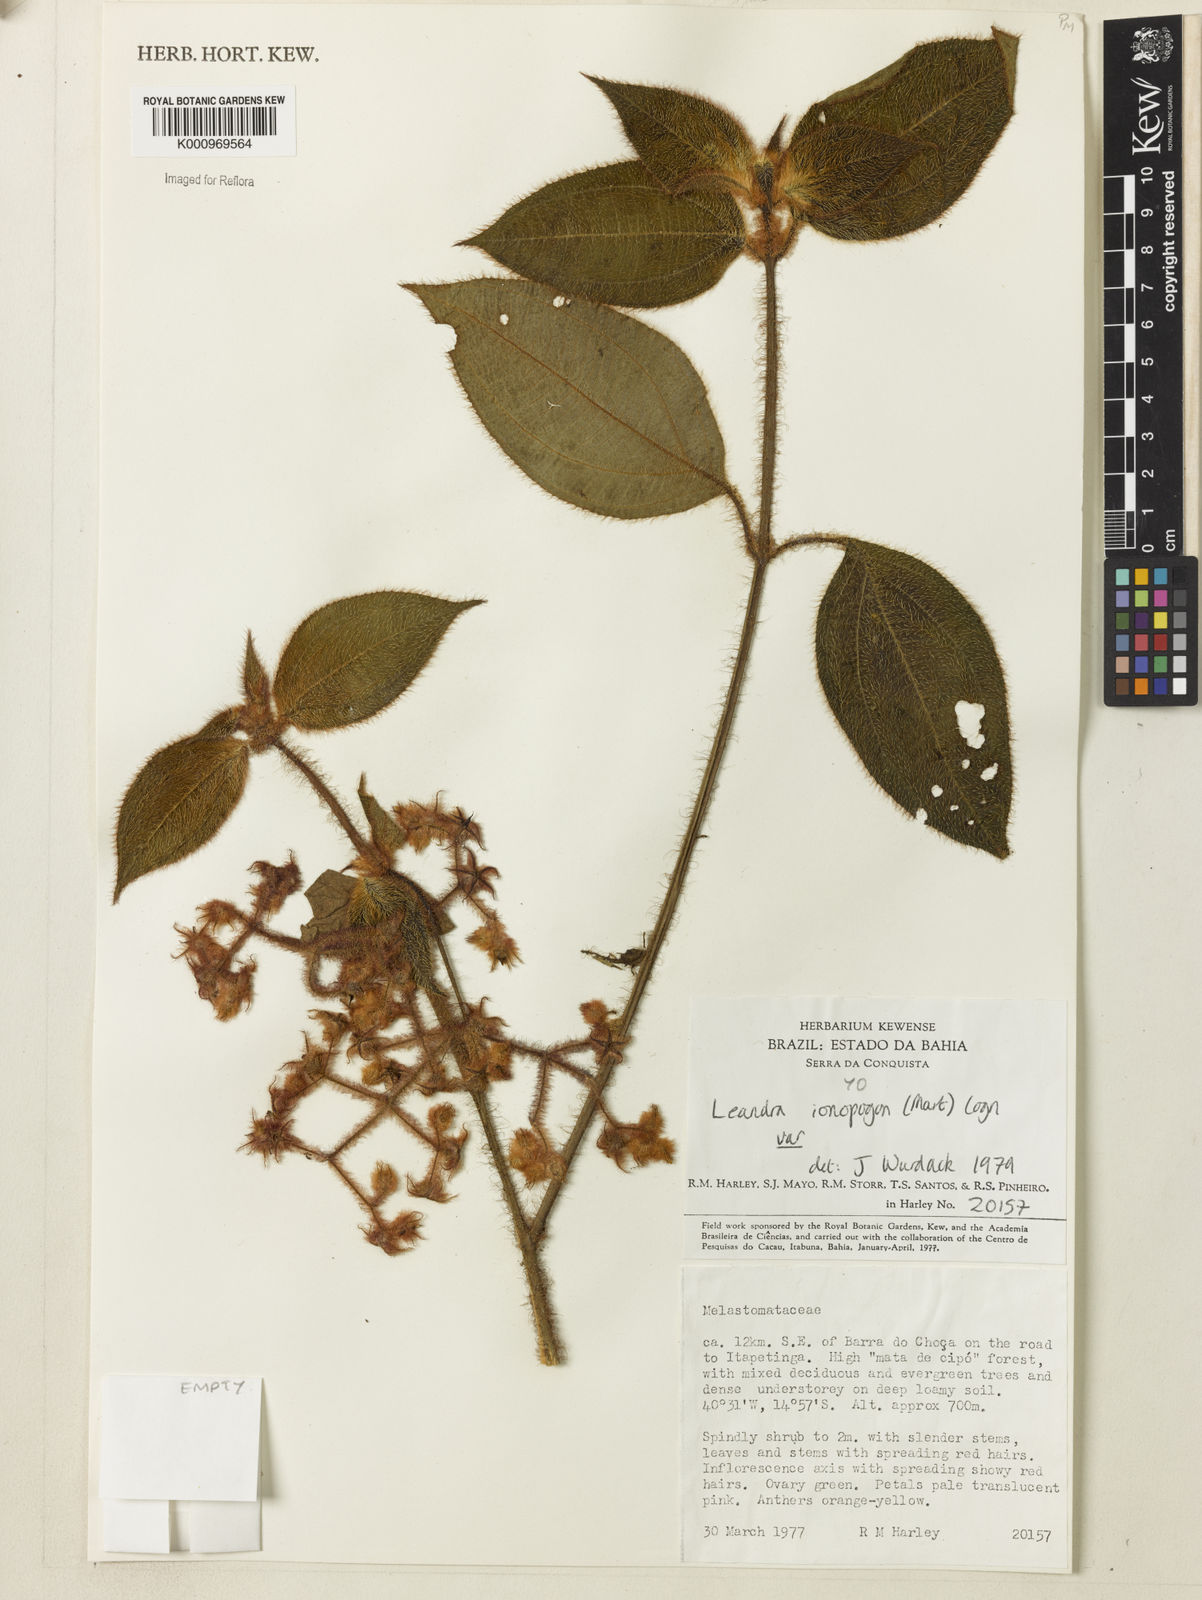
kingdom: Plantae
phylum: Tracheophyta
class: Magnoliopsida
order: Myrtales
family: Melastomataceae
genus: Miconia
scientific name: Miconia ionopogon
